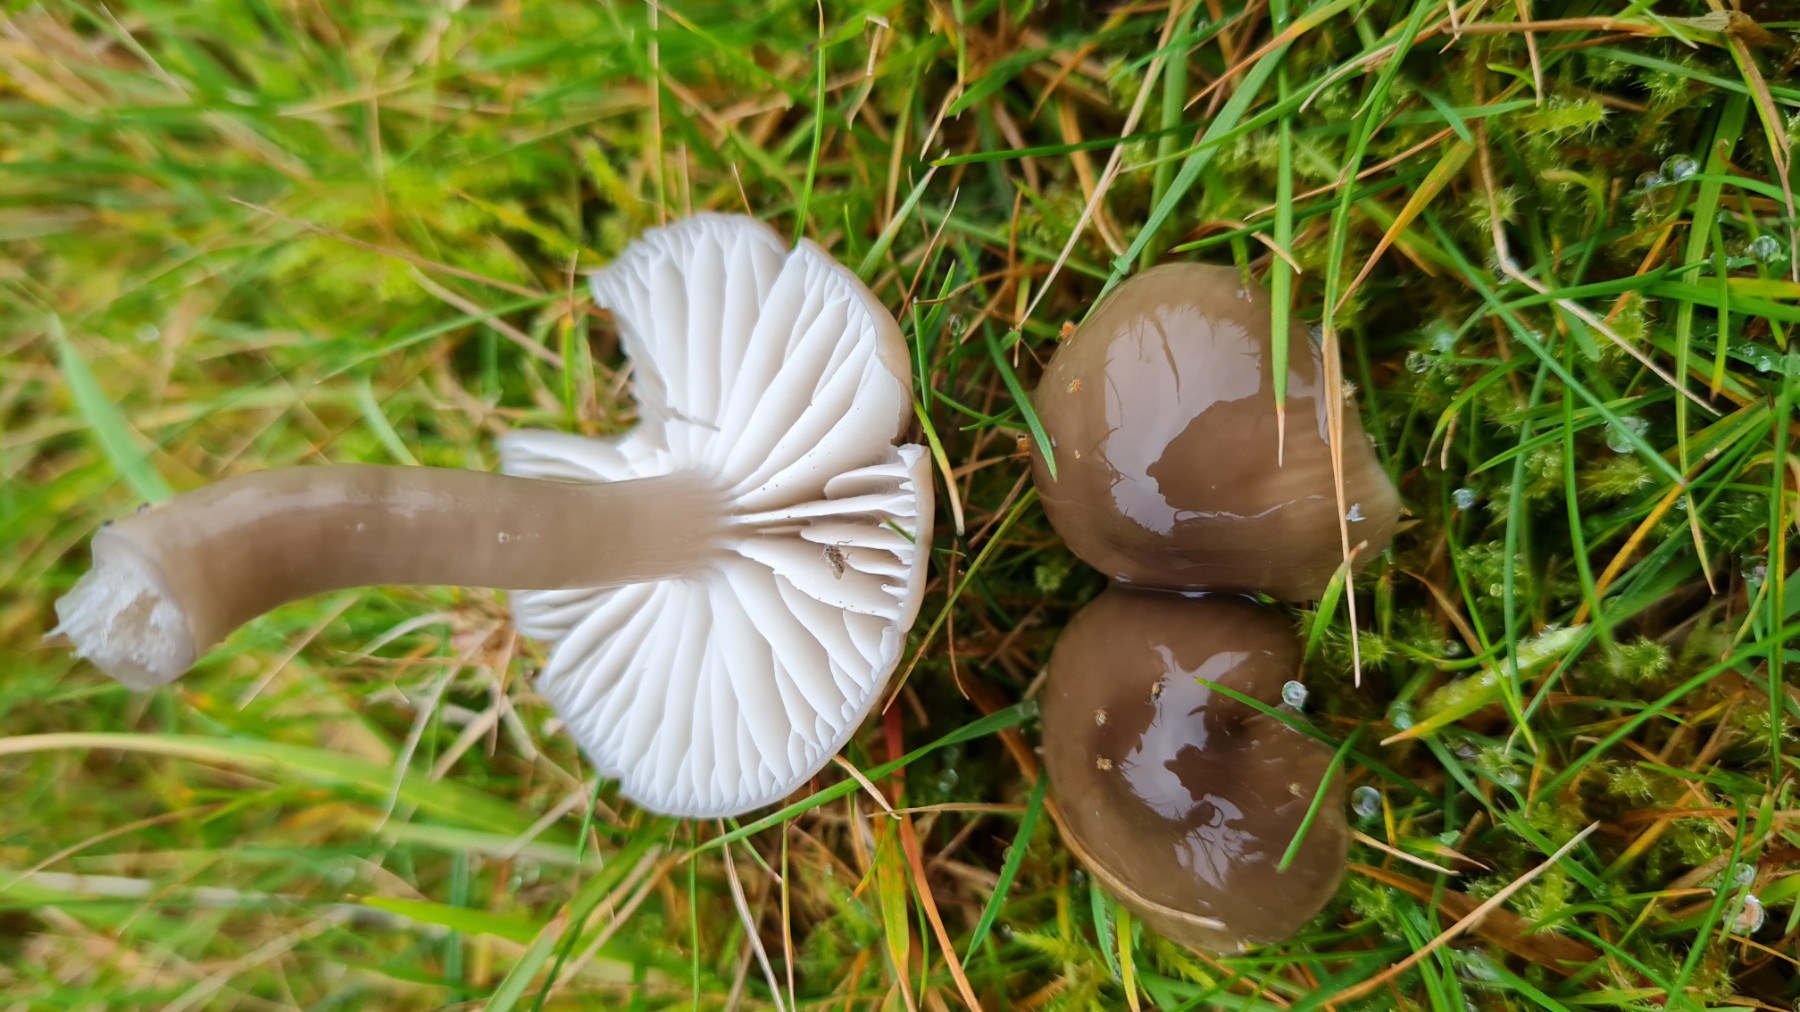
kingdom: Fungi
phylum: Basidiomycota
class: Agaricomycetes
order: Agaricales
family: Hygrophoraceae
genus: Gliophorus
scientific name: Gliophorus irrigatus
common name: slimet vokshat
